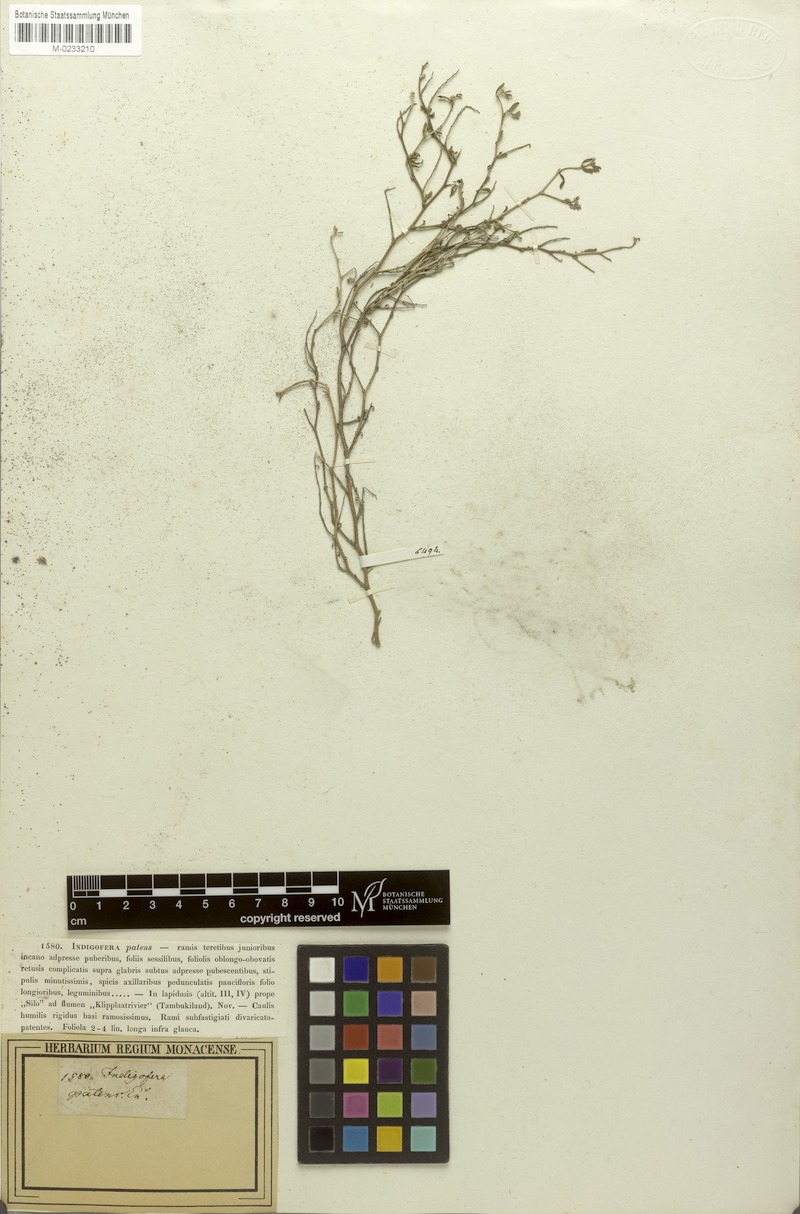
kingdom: Plantae
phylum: Tracheophyta
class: Magnoliopsida
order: Fabales
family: Fabaceae
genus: Indigofera
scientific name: Indigofera sessilifolia
